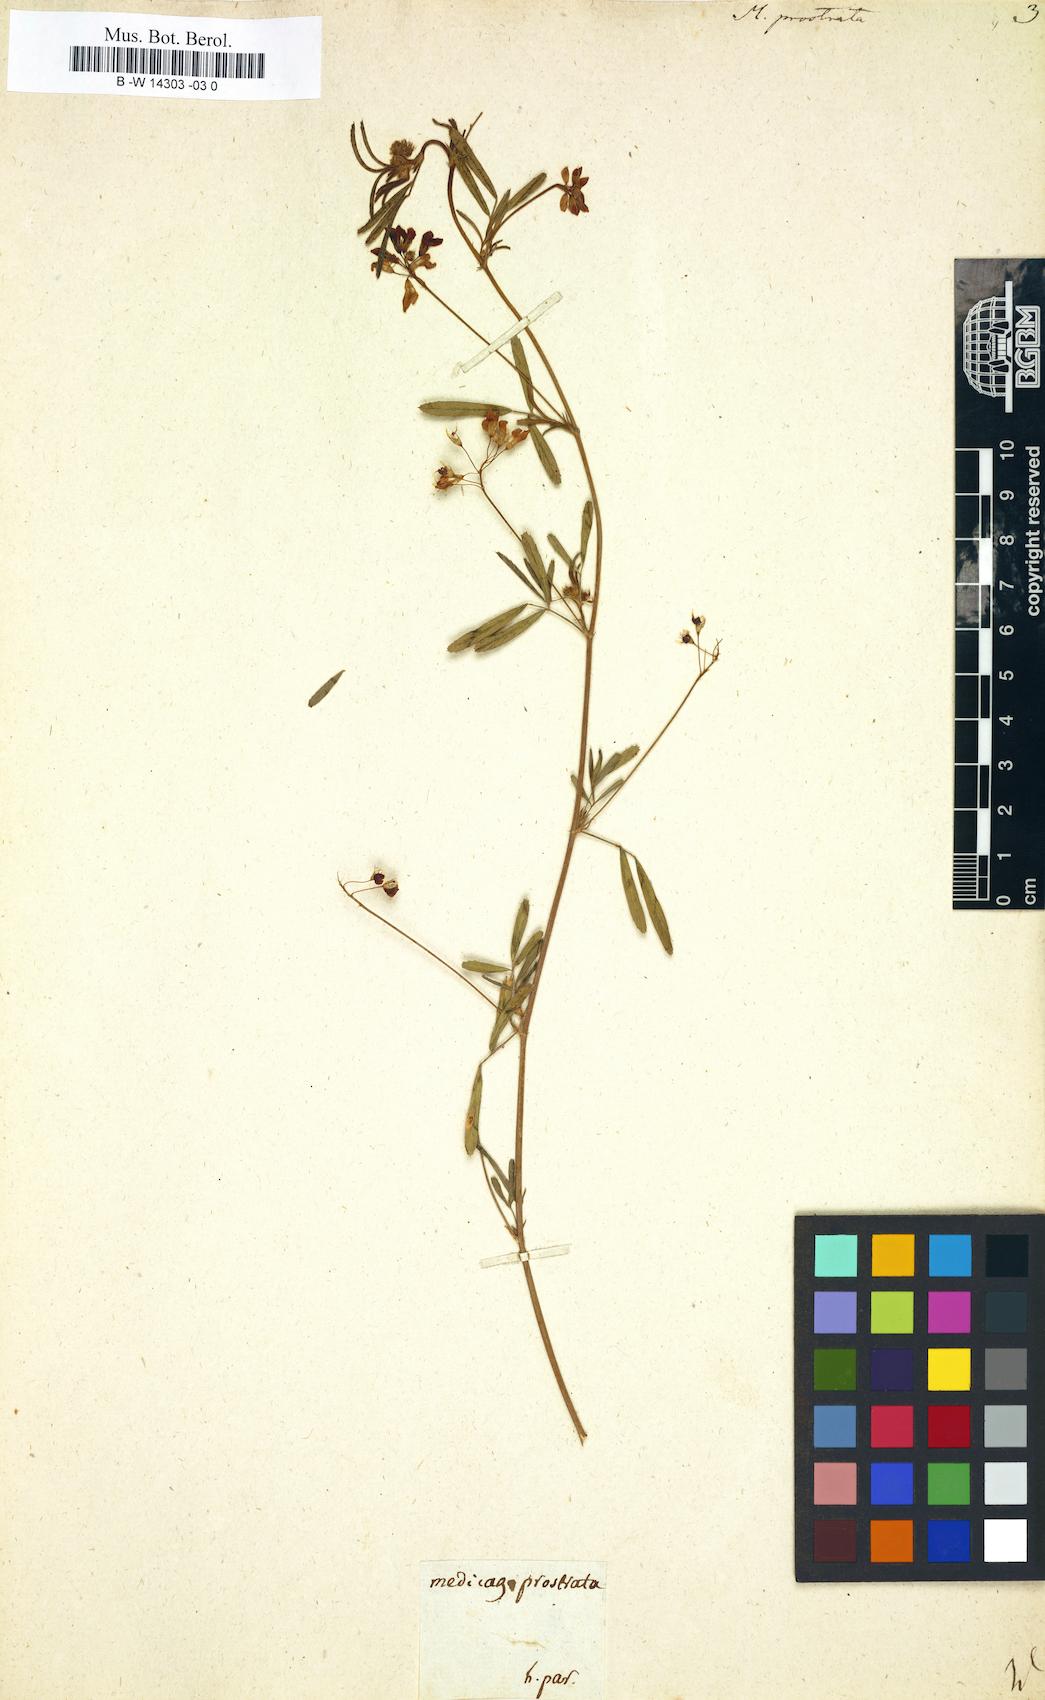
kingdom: Plantae
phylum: Tracheophyta
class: Magnoliopsida
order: Fabales
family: Fabaceae
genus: Medicago
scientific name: Medicago prostrata
